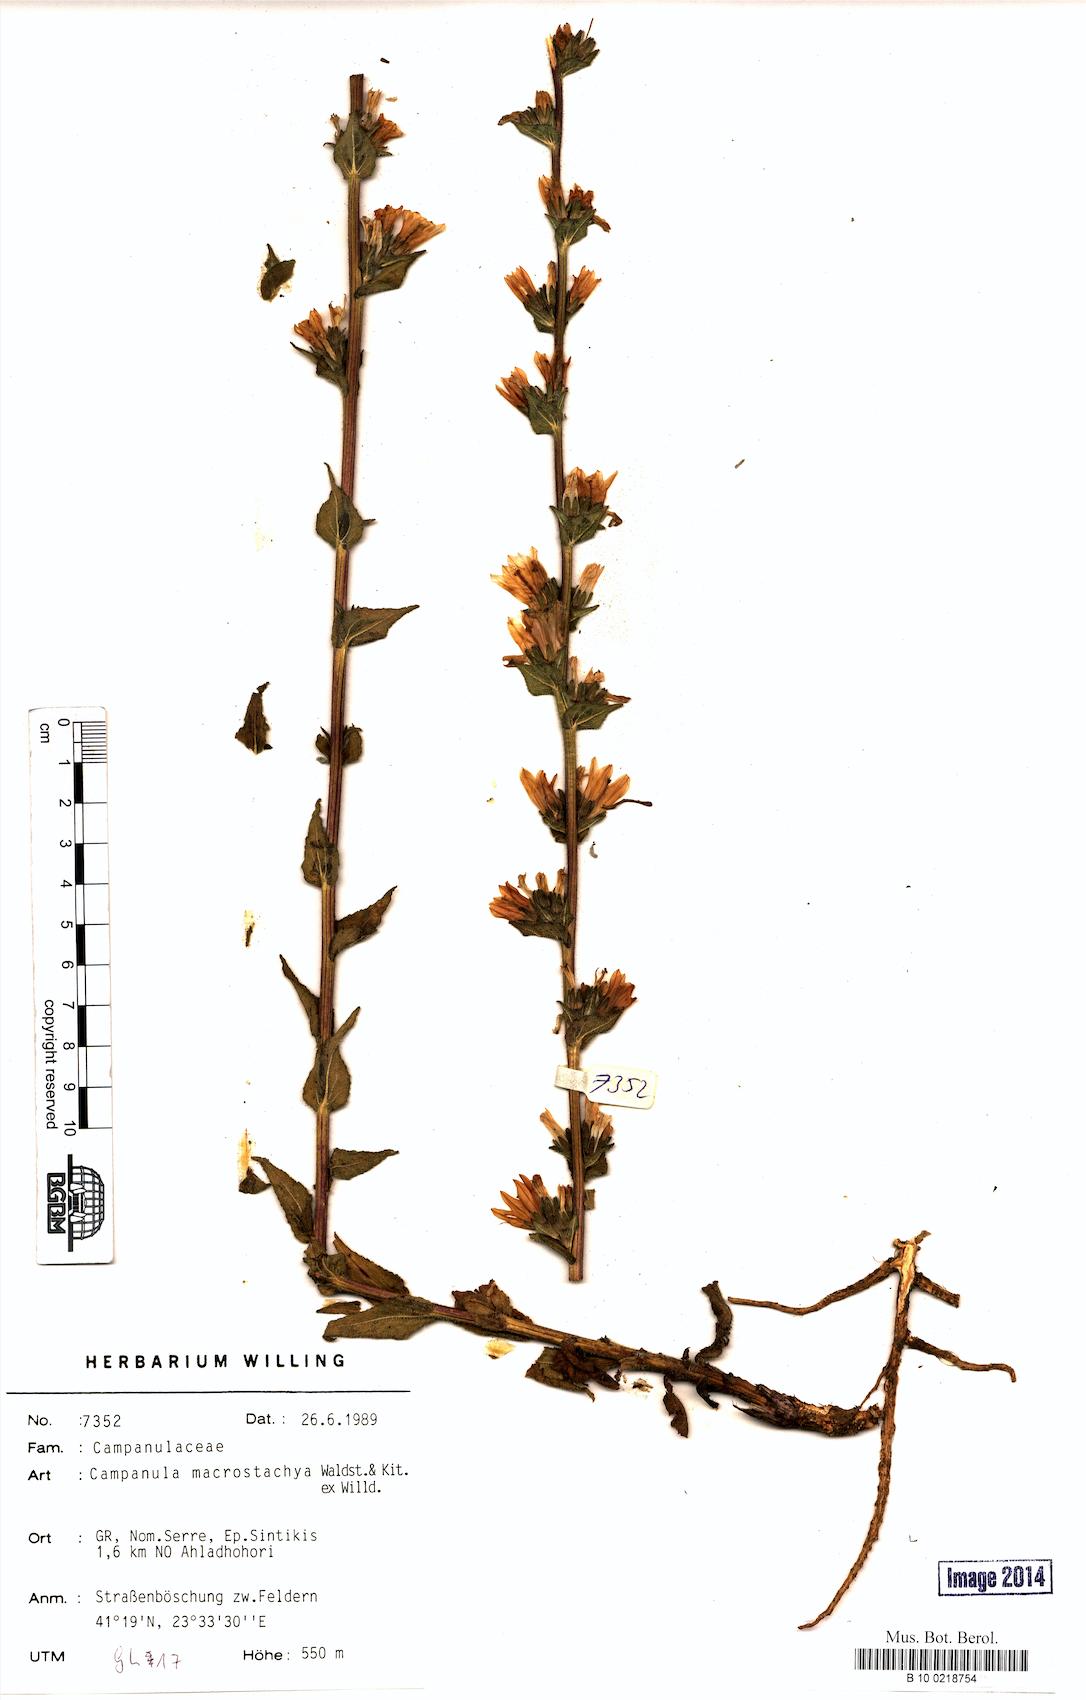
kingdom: Plantae
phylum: Tracheophyta
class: Magnoliopsida
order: Asterales
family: Campanulaceae
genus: Campanula
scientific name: Campanula macrostachya
